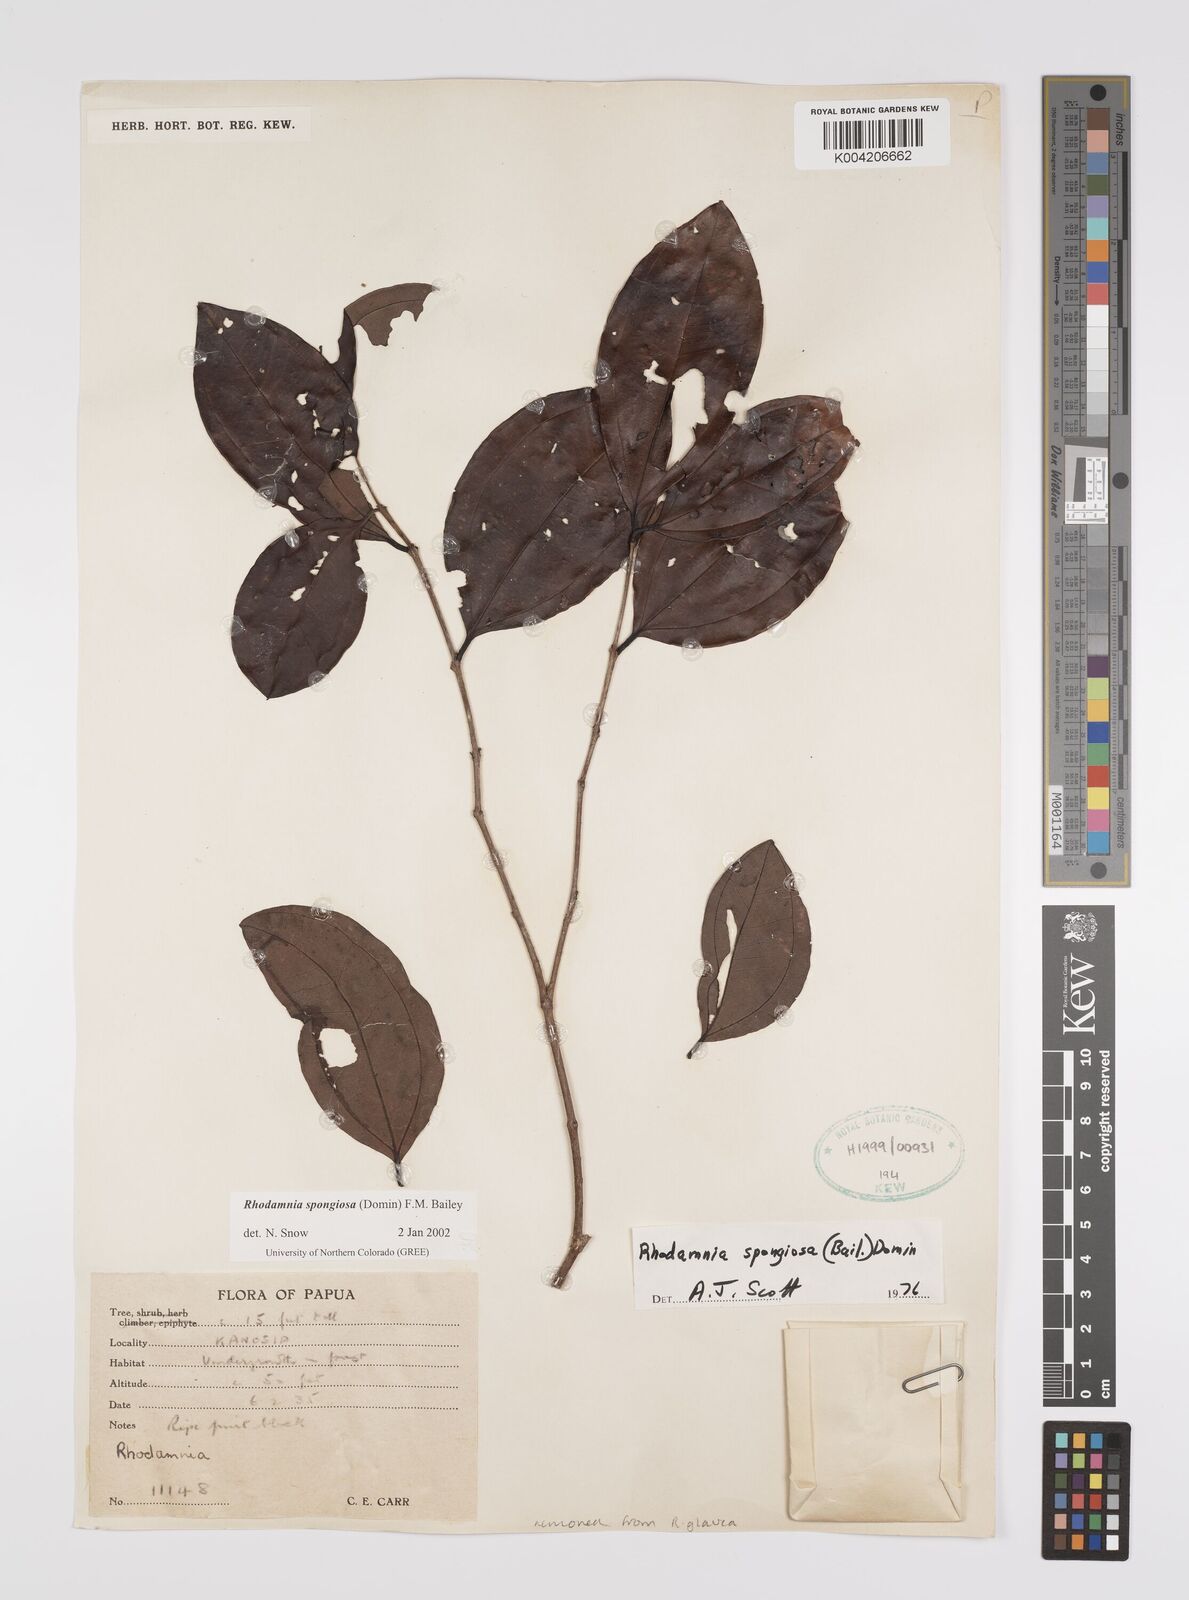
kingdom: Plantae
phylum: Tracheophyta
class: Magnoliopsida
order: Myrtales
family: Myrtaceae
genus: Rhodamnia
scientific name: Rhodamnia glauca
